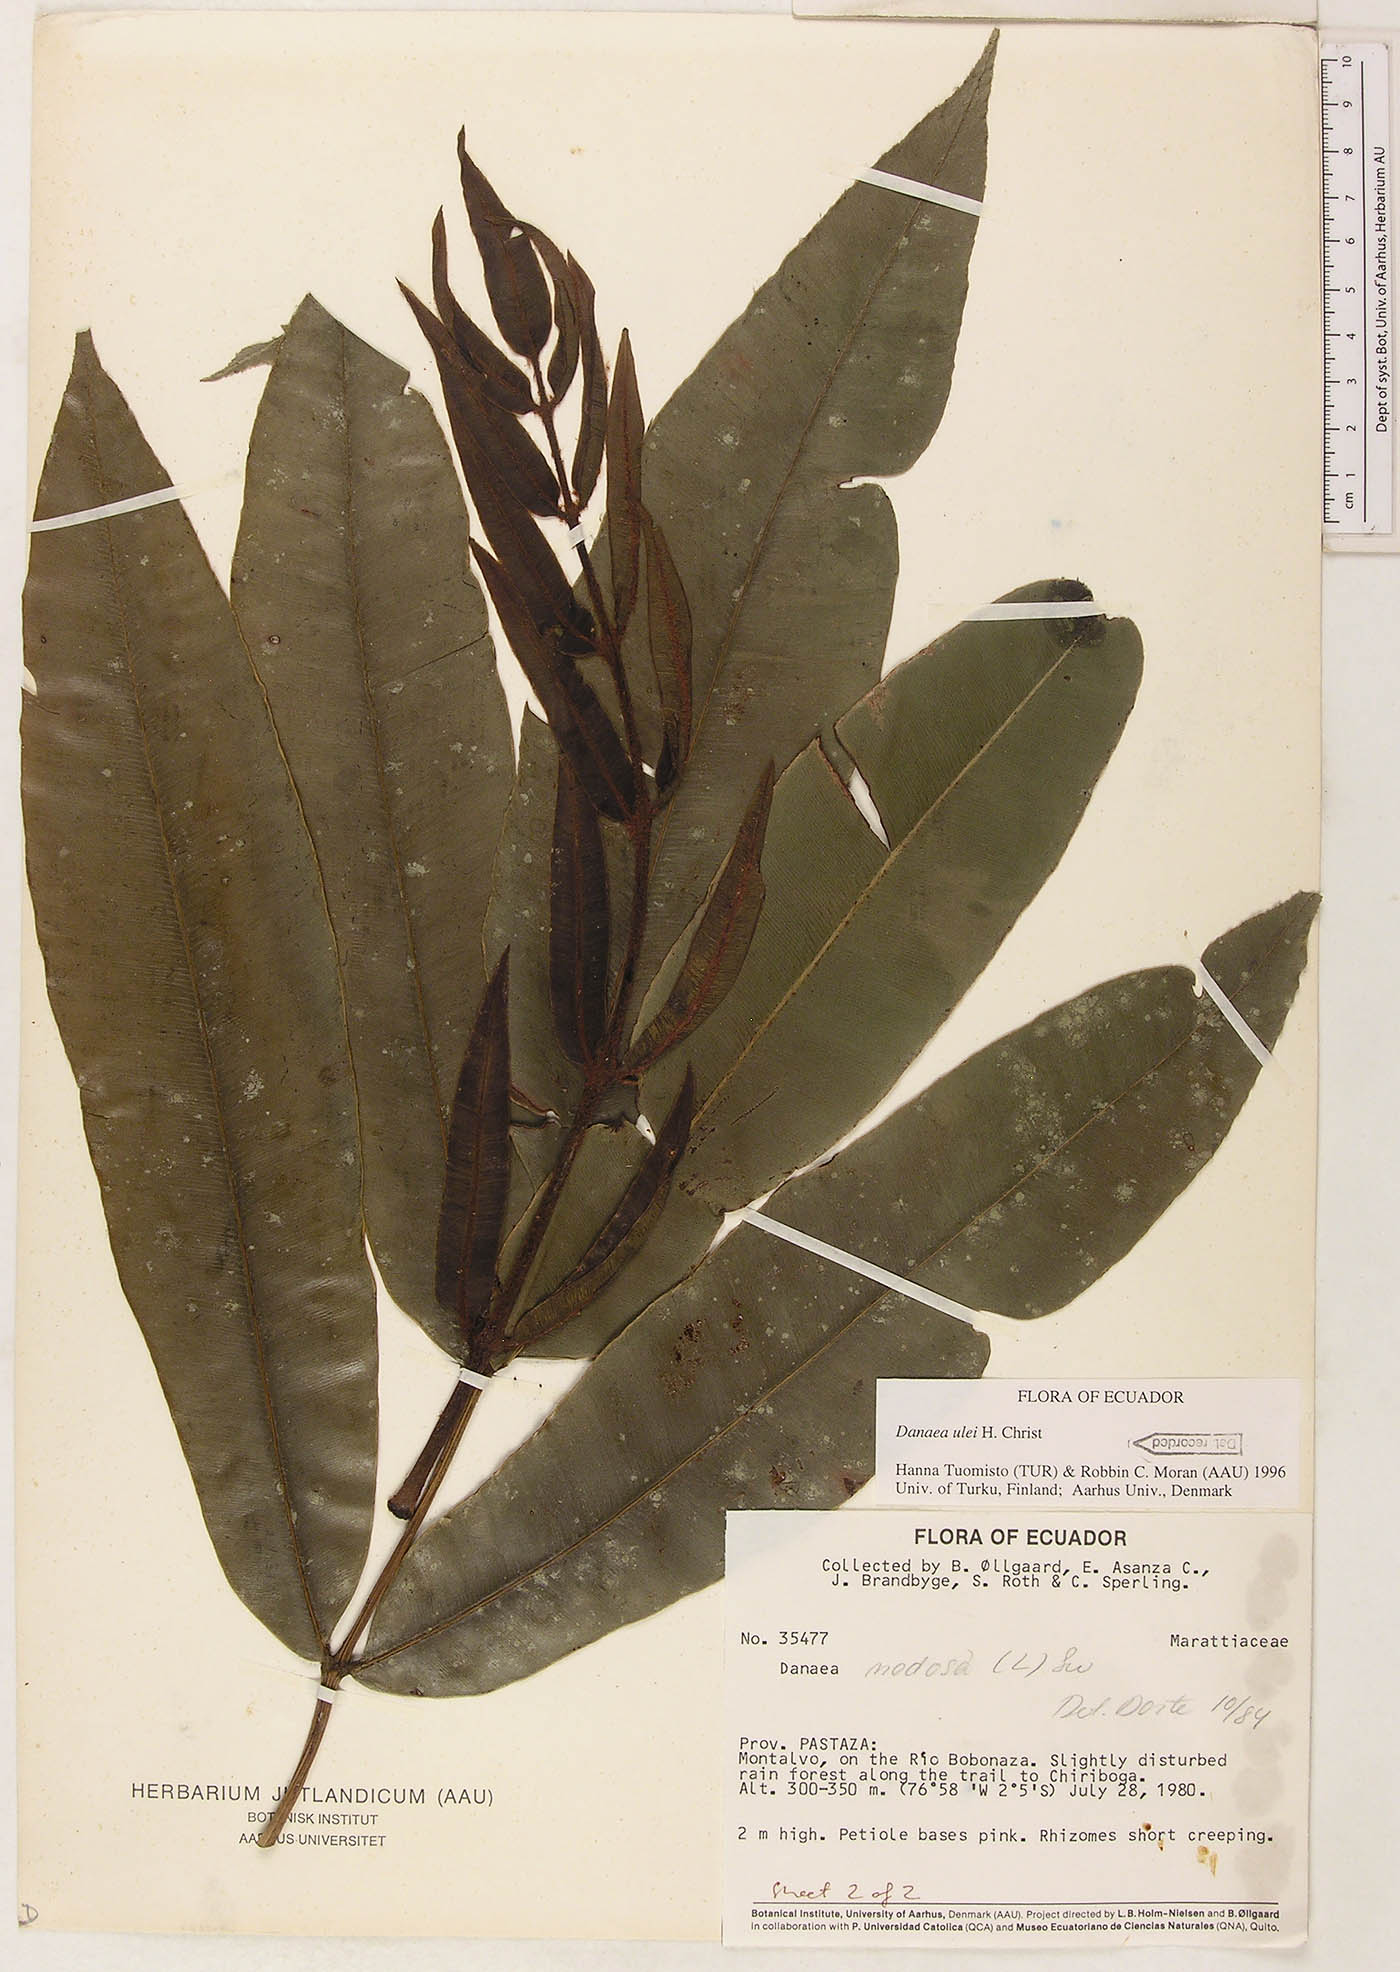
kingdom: Plantae
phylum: Tracheophyta
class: Polypodiopsida
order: Marattiales
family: Marattiaceae
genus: Danaea
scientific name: Danaea cartilaginea
